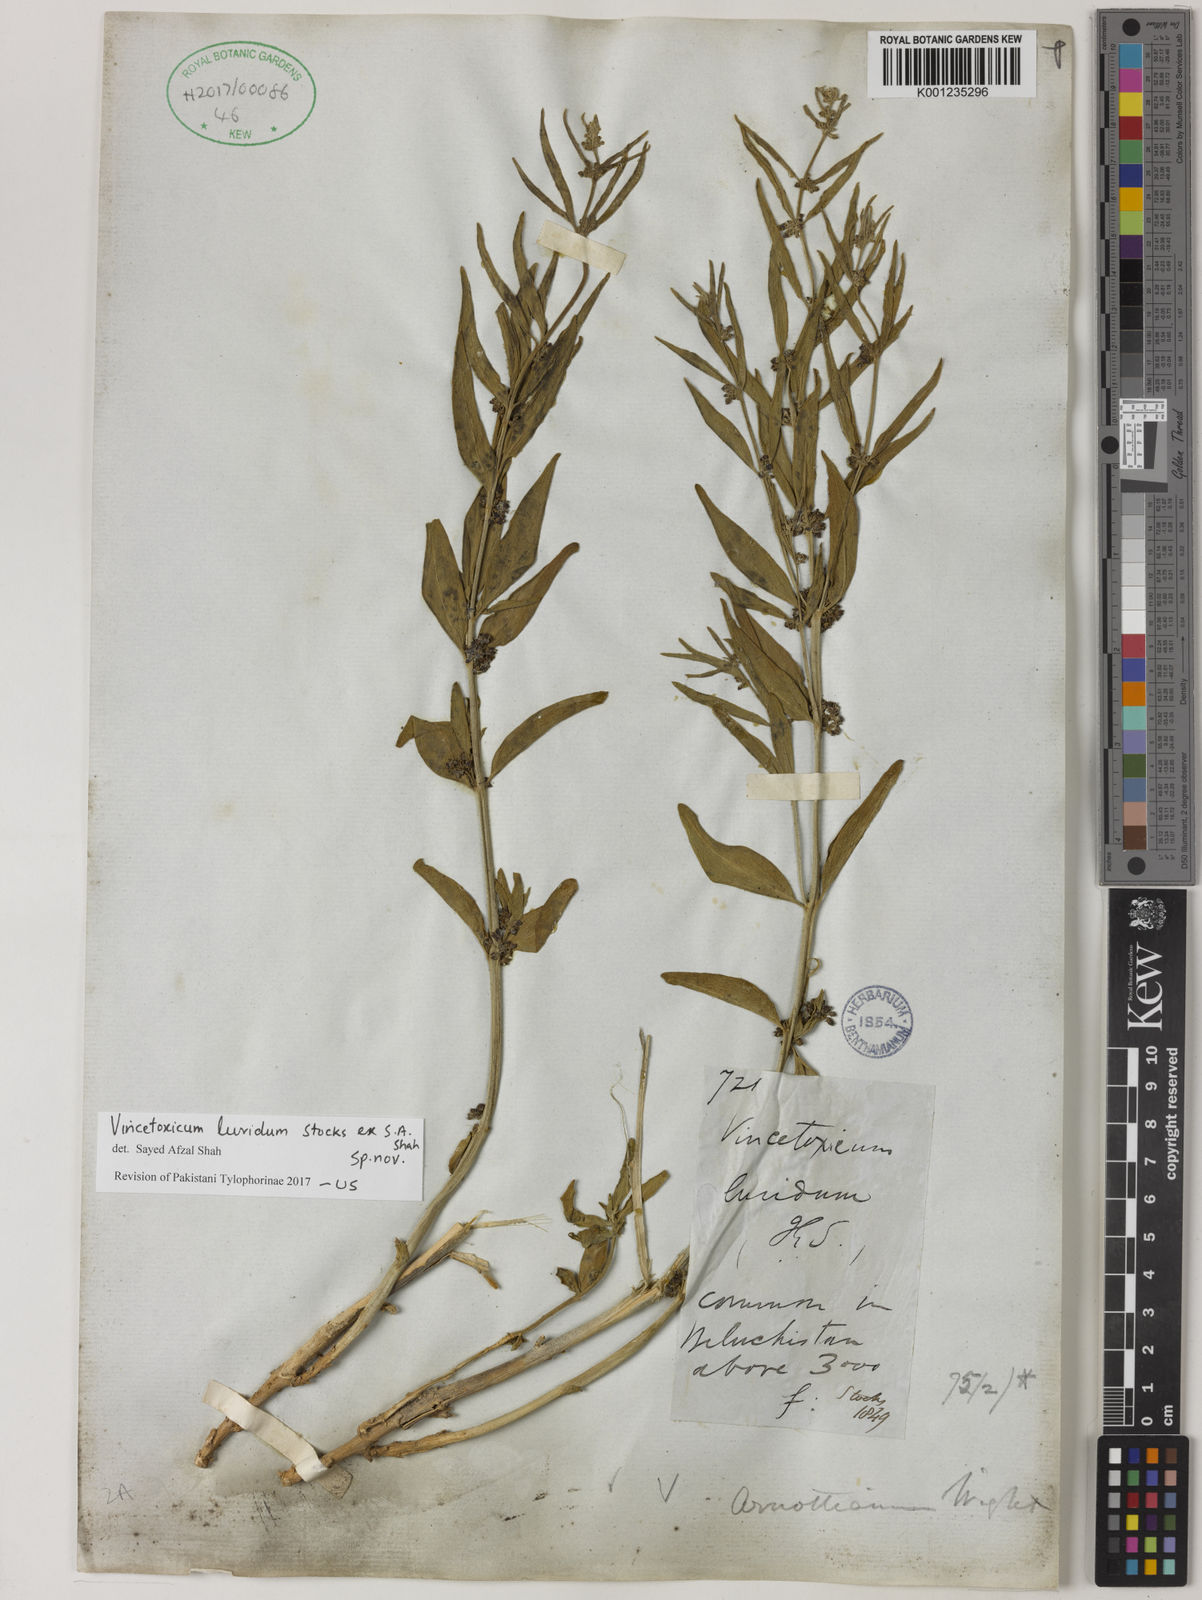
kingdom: Plantae
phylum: Tracheophyta
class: Magnoliopsida
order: Gentianales
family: Apocynaceae
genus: Vincetoxicum
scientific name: Vincetoxicum arnottianum
